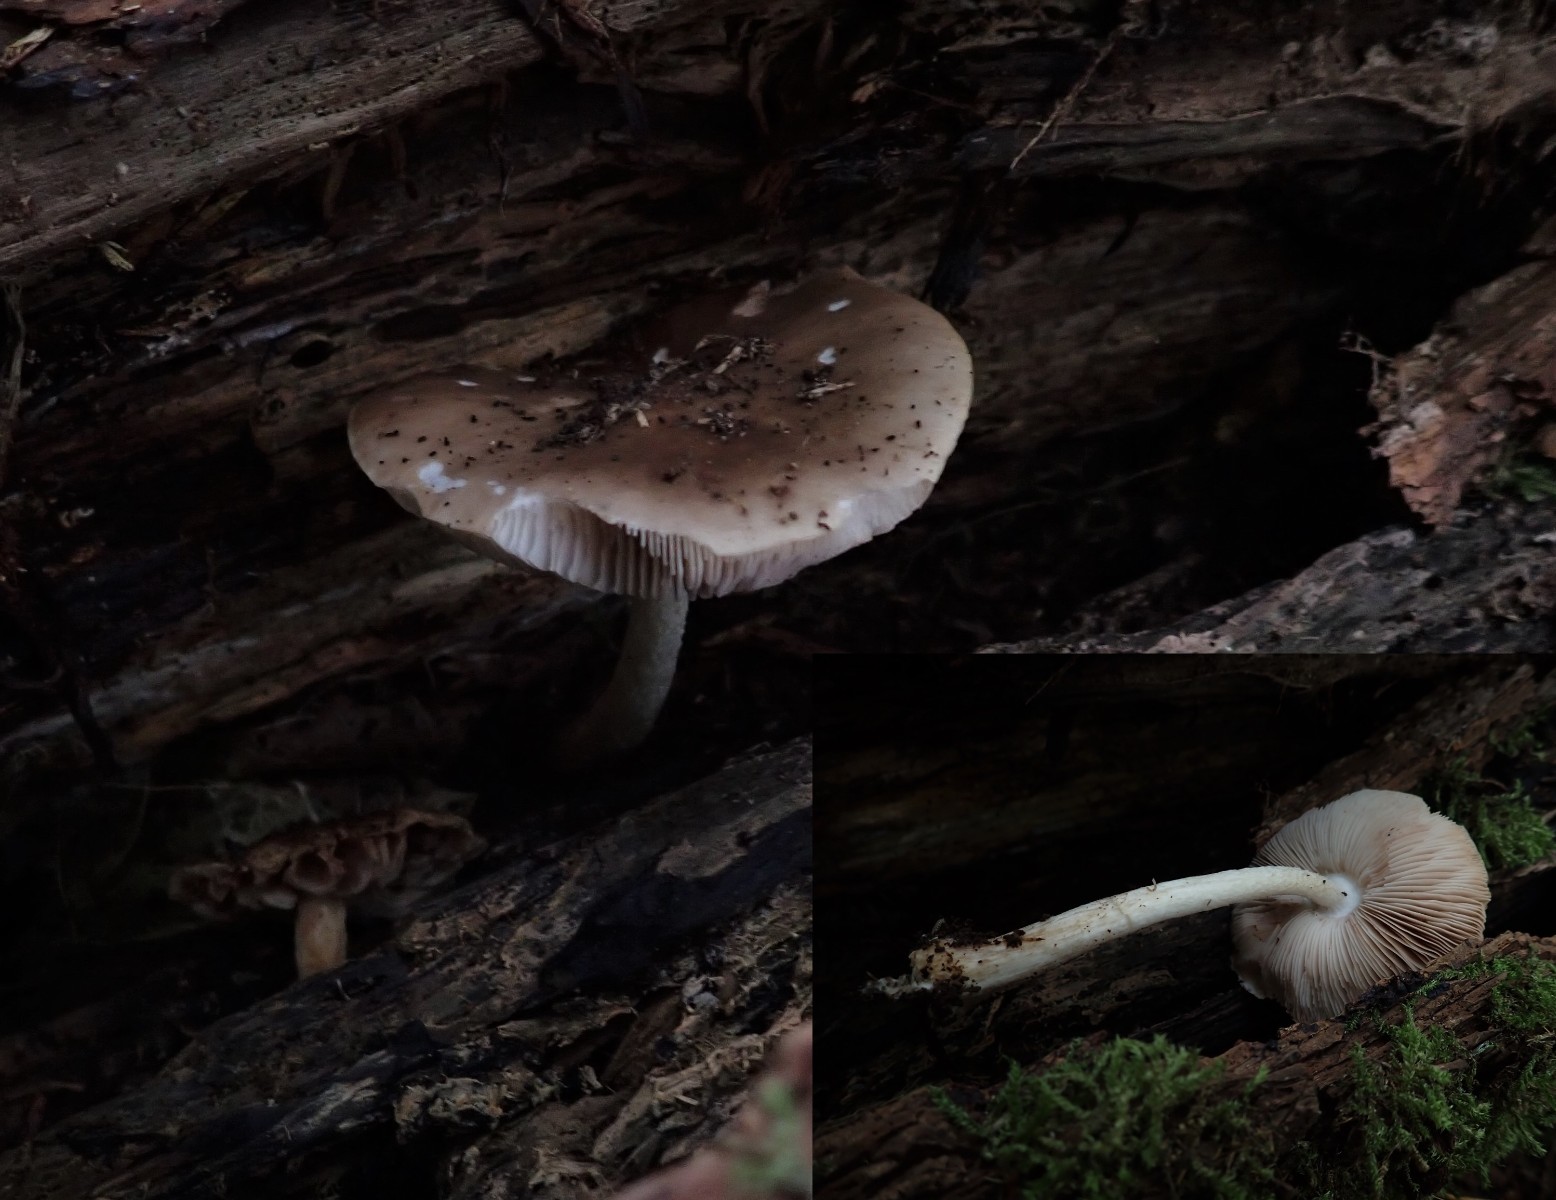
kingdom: Fungi
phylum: Basidiomycota
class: Agaricomycetes
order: Agaricales
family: Pluteaceae
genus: Pluteus
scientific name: Pluteus cervinus
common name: sodfarvet skærmhat
